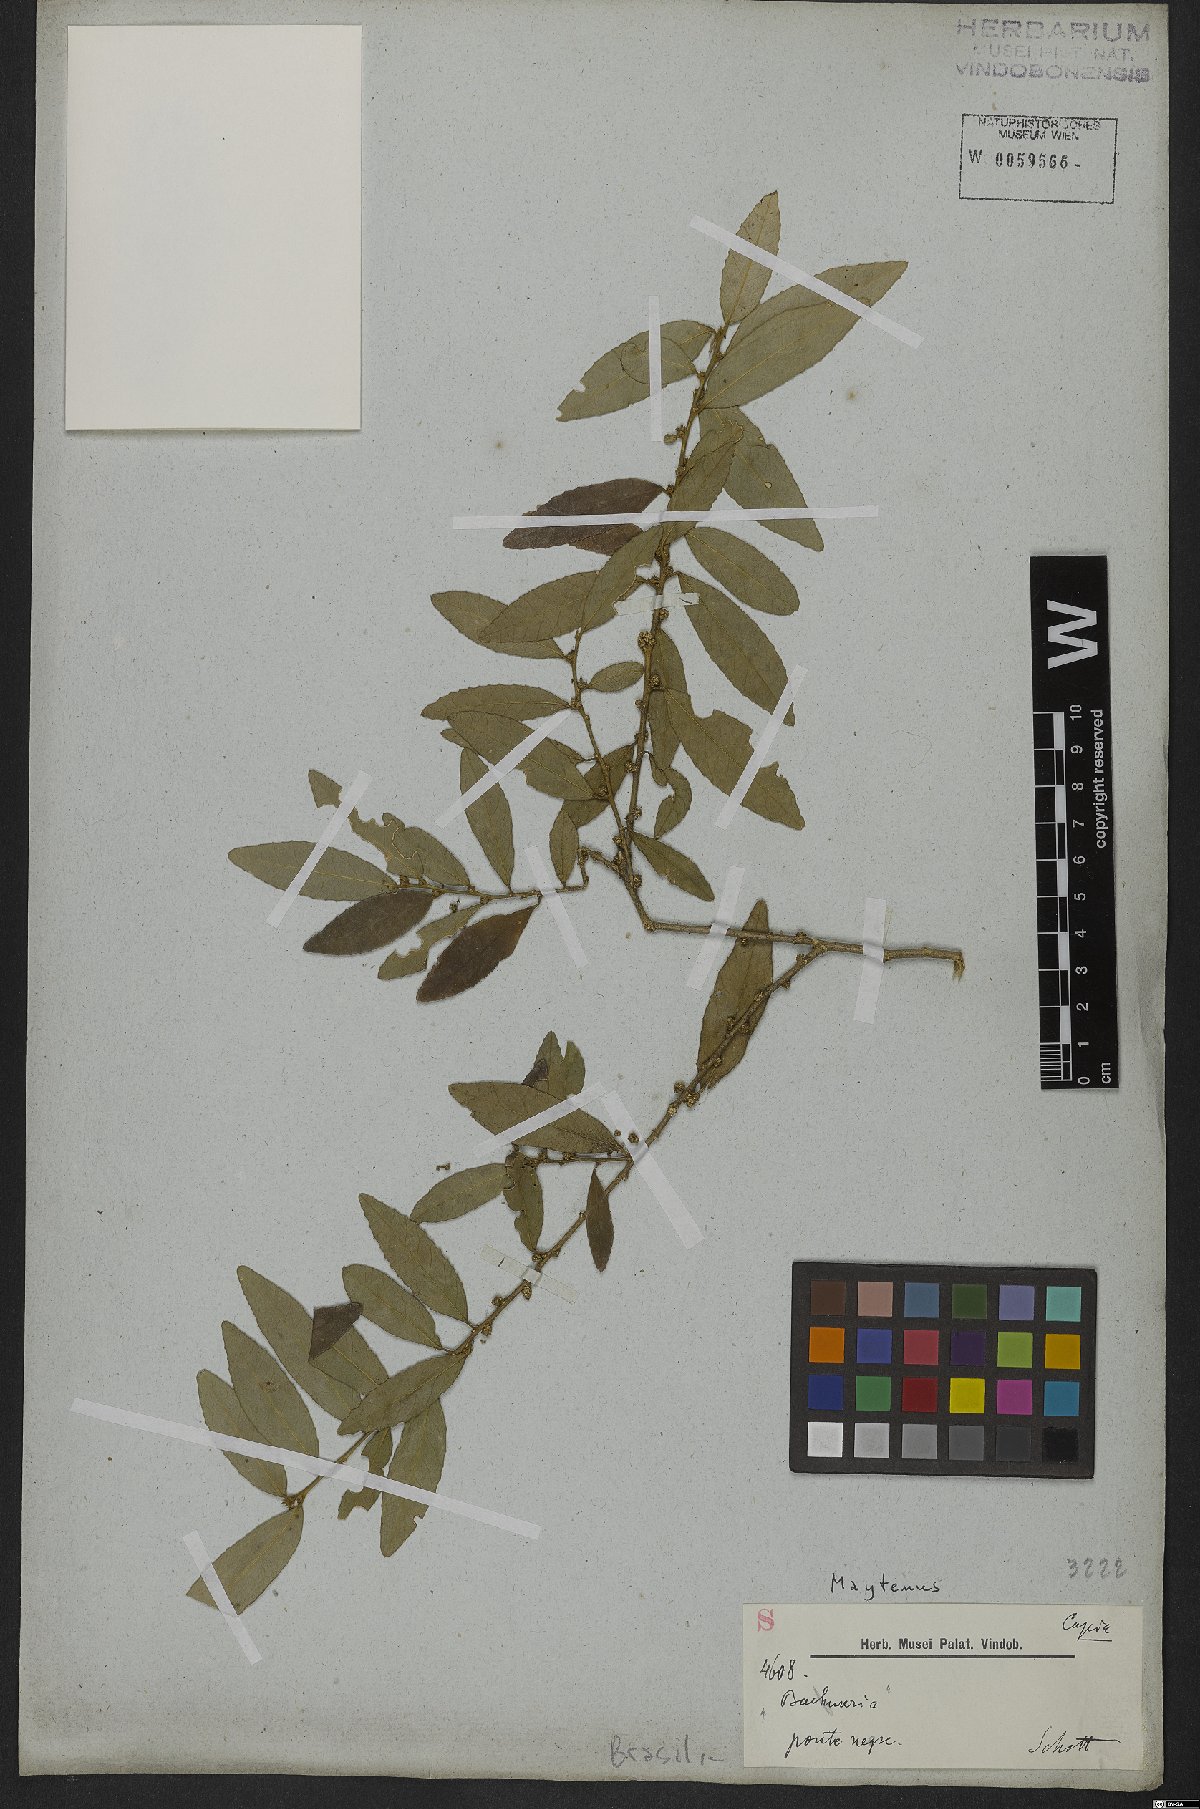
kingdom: Plantae
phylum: Tracheophyta
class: Magnoliopsida
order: Celastrales
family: Celastraceae
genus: Maytenus
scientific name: Maytenus
